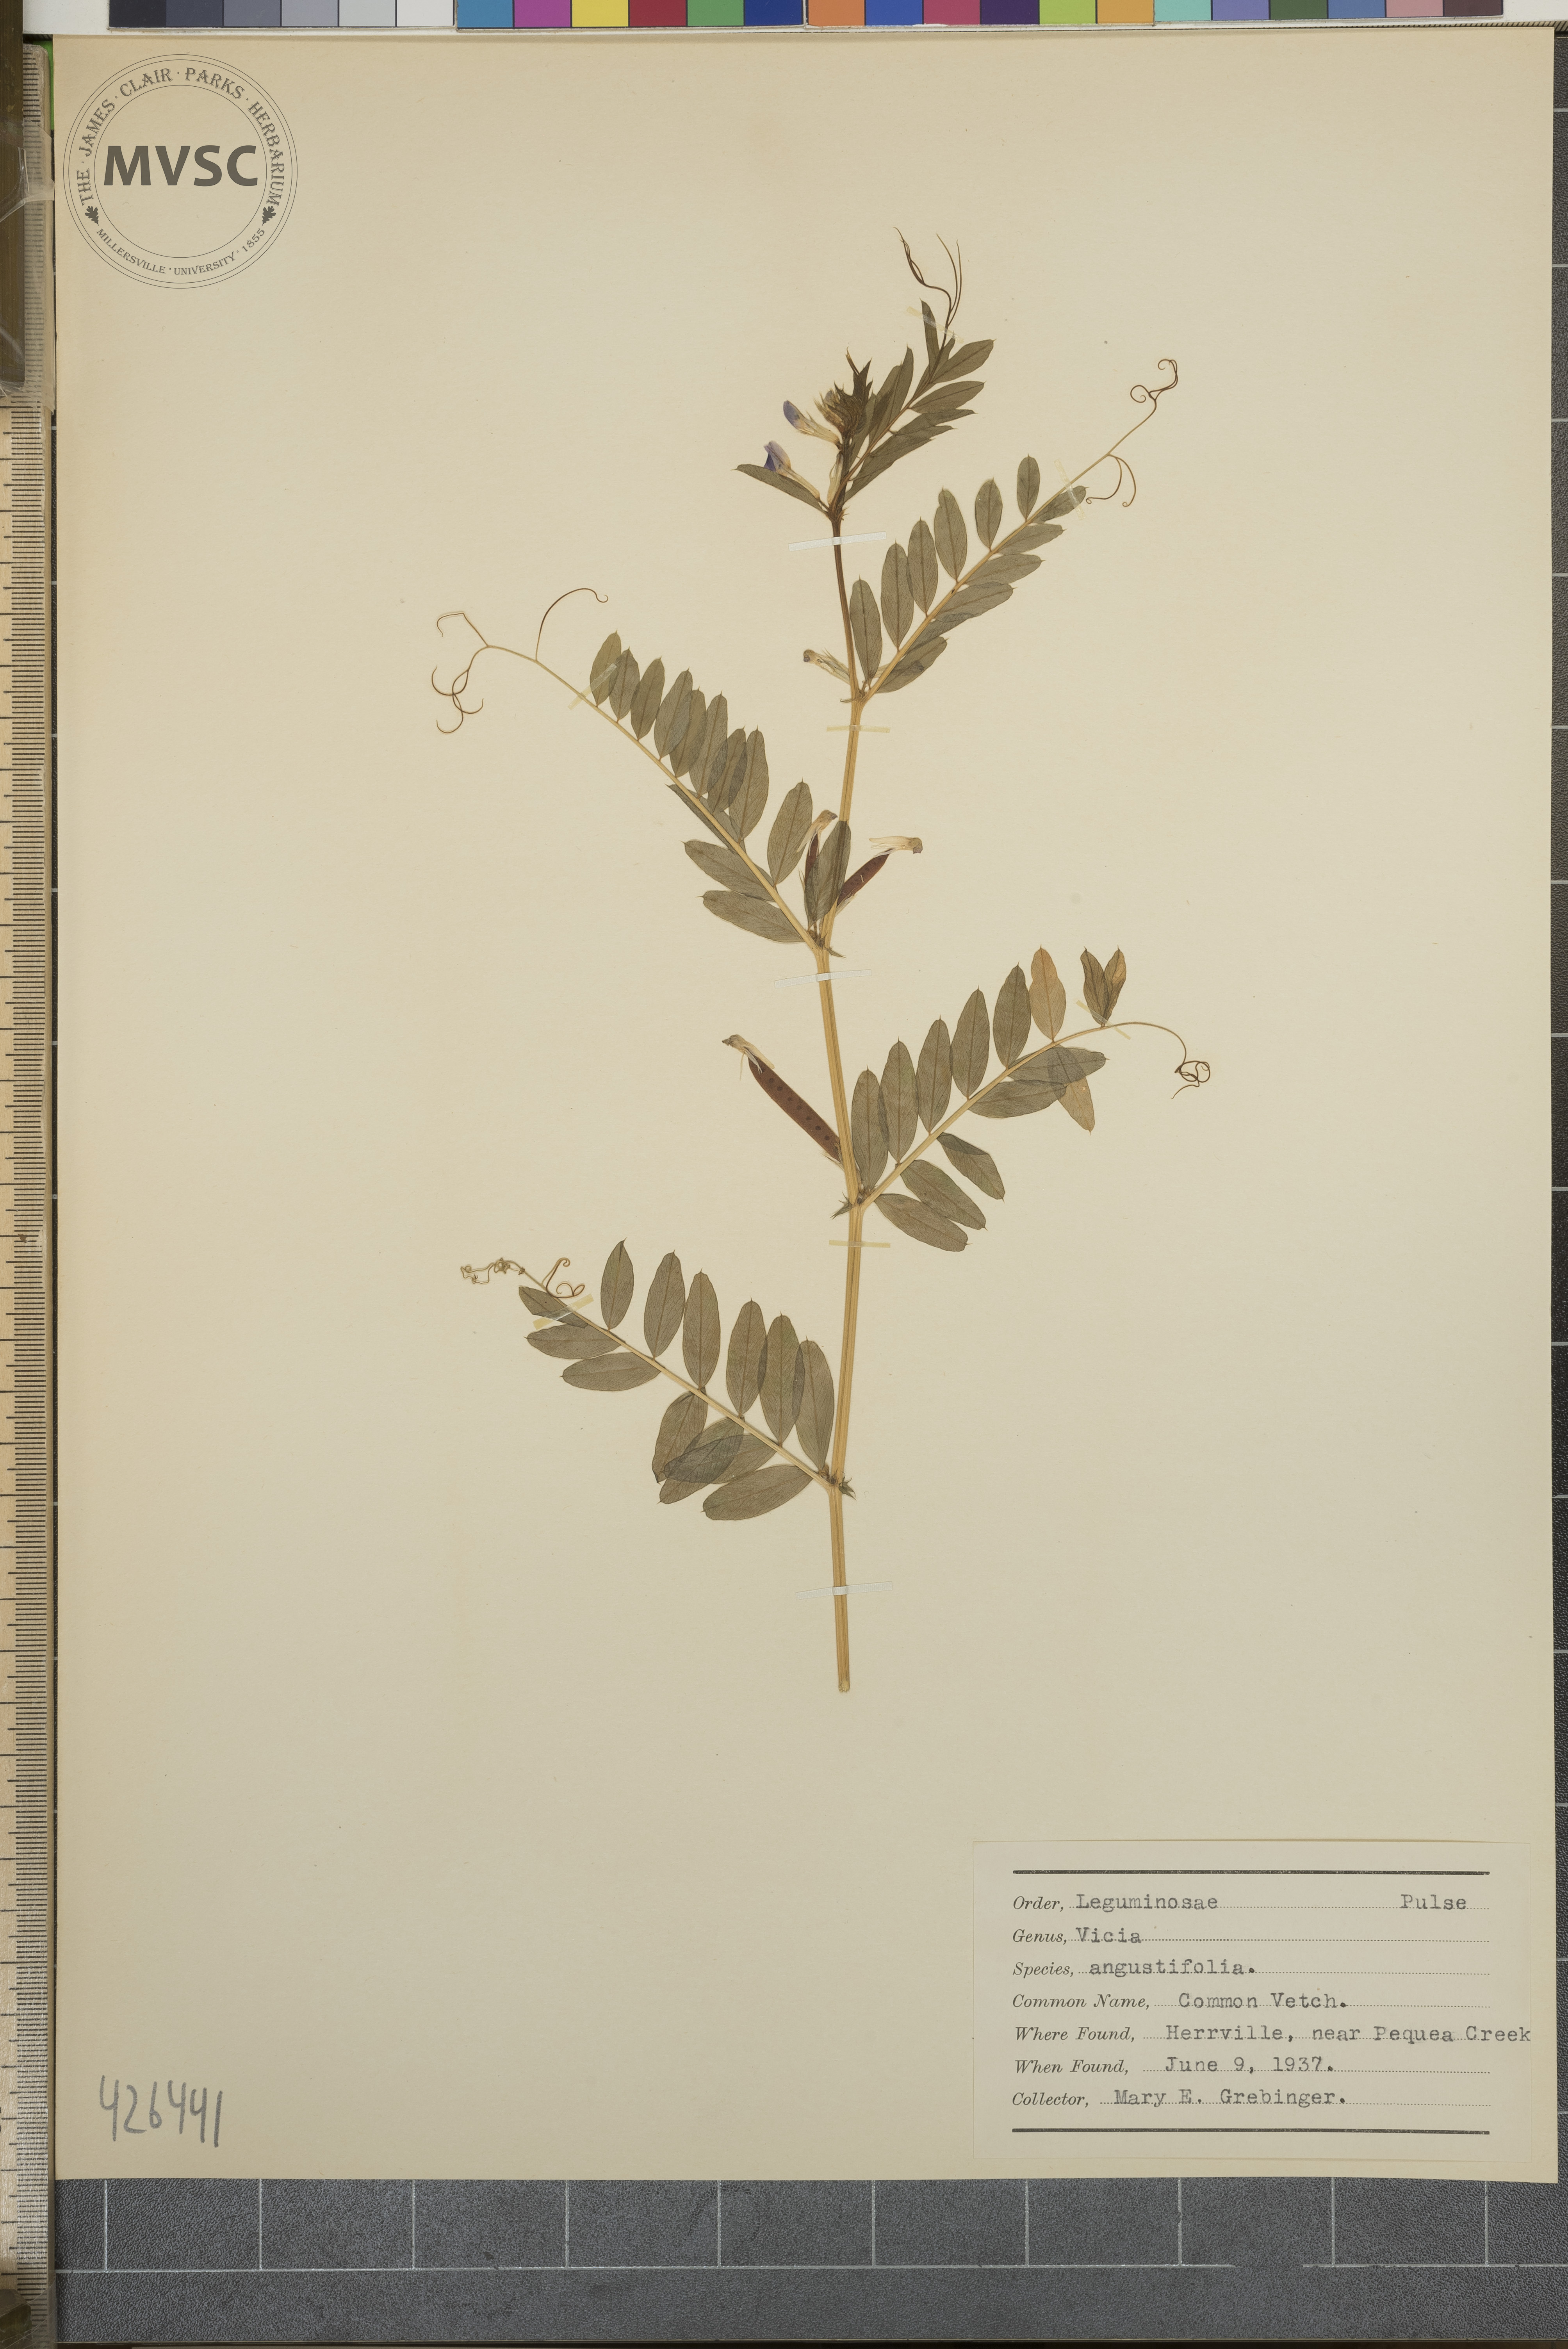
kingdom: Plantae
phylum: Tracheophyta
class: Magnoliopsida
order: Fabales
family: Fabaceae
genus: Vicia
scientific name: Vicia
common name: Common vetch
